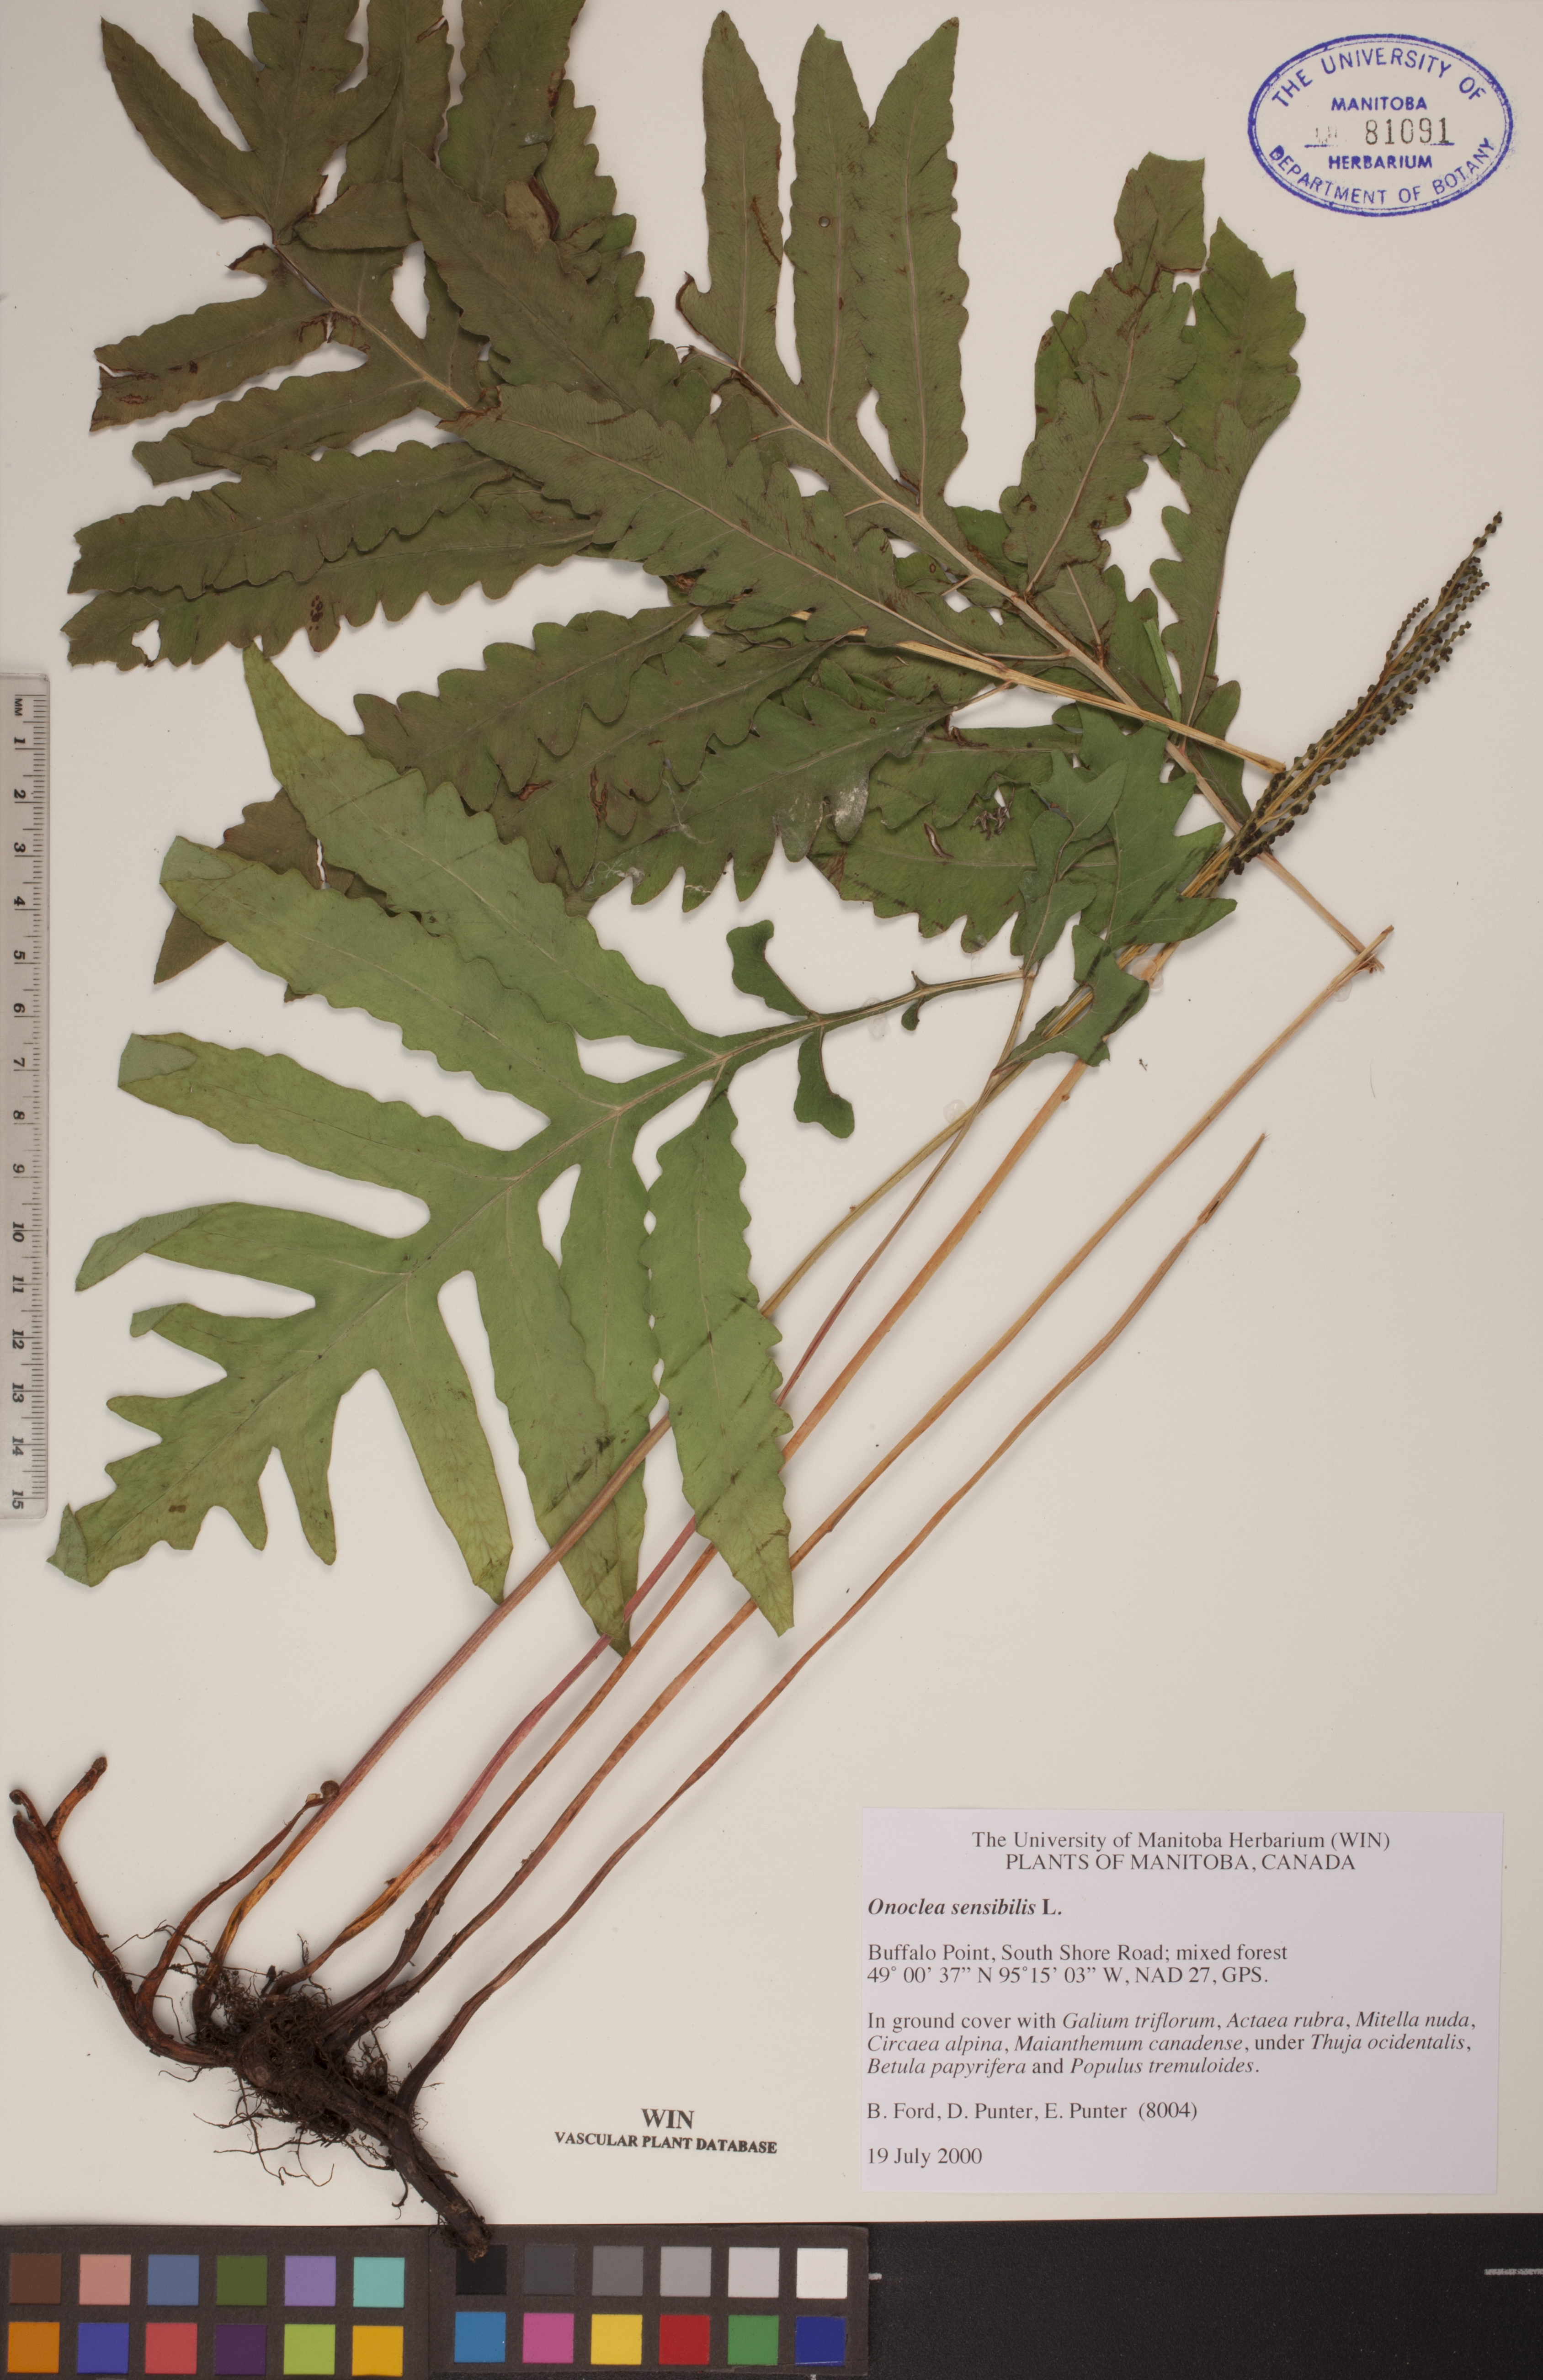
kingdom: Plantae
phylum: Tracheophyta
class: Polypodiopsida
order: Polypodiales
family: Onocleaceae
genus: Onoclea
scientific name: Onoclea sensibilis
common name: Sensitive fern
